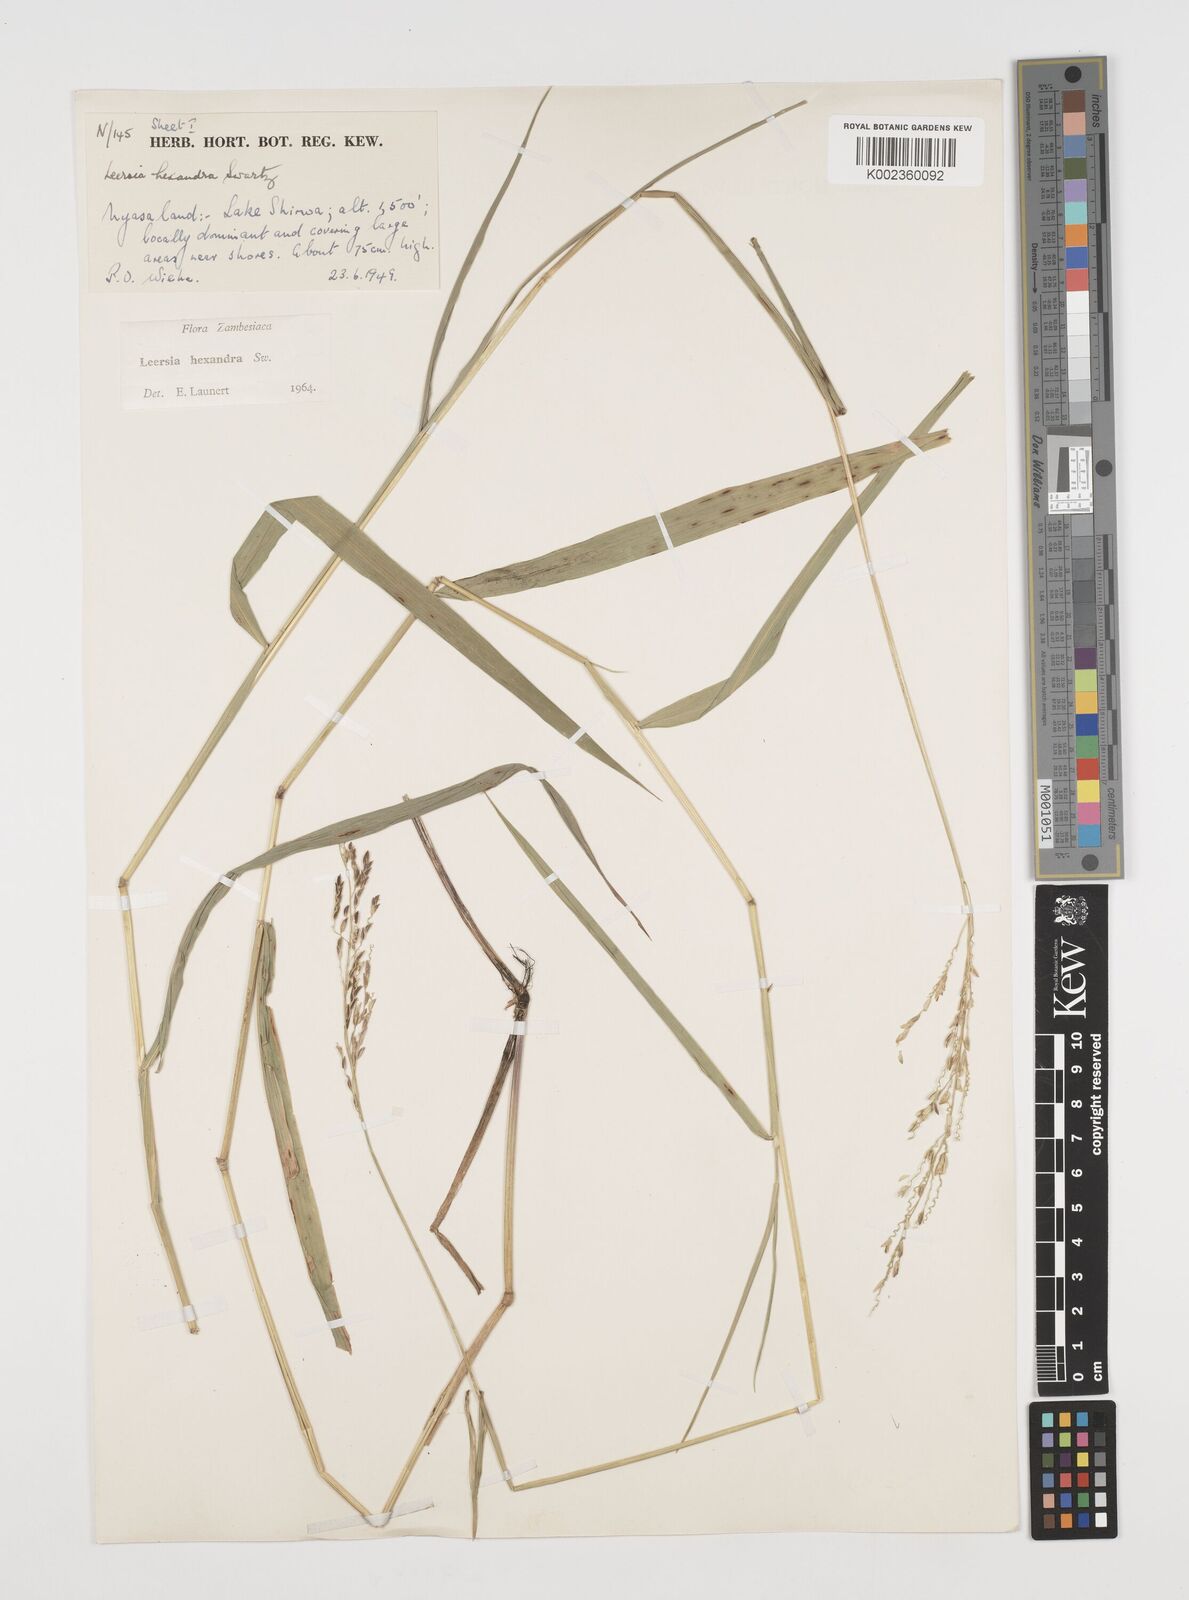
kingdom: Plantae
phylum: Tracheophyta
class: Liliopsida
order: Poales
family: Poaceae
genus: Leersia
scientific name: Leersia hexandra
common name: Southern cut grass
